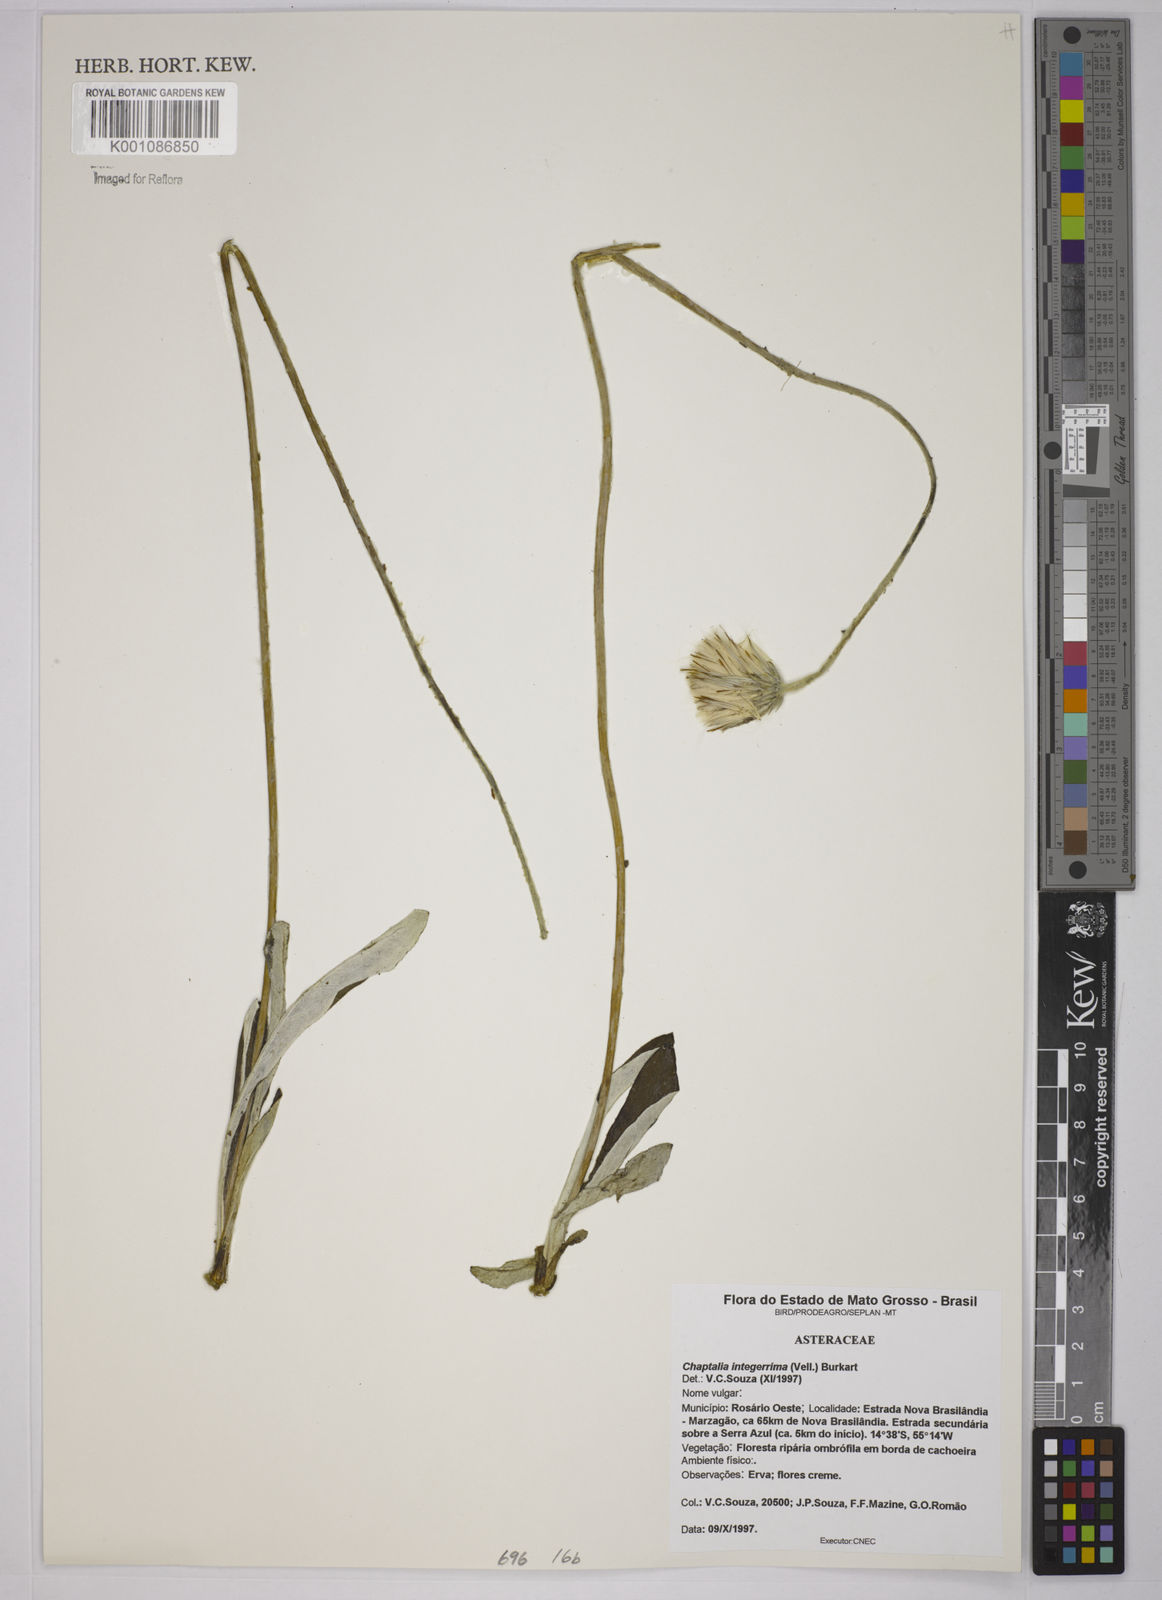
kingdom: Plantae
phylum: Tracheophyta
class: Magnoliopsida
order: Asterales
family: Asteraceae
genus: Chaptalia
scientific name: Chaptalia integerrima
